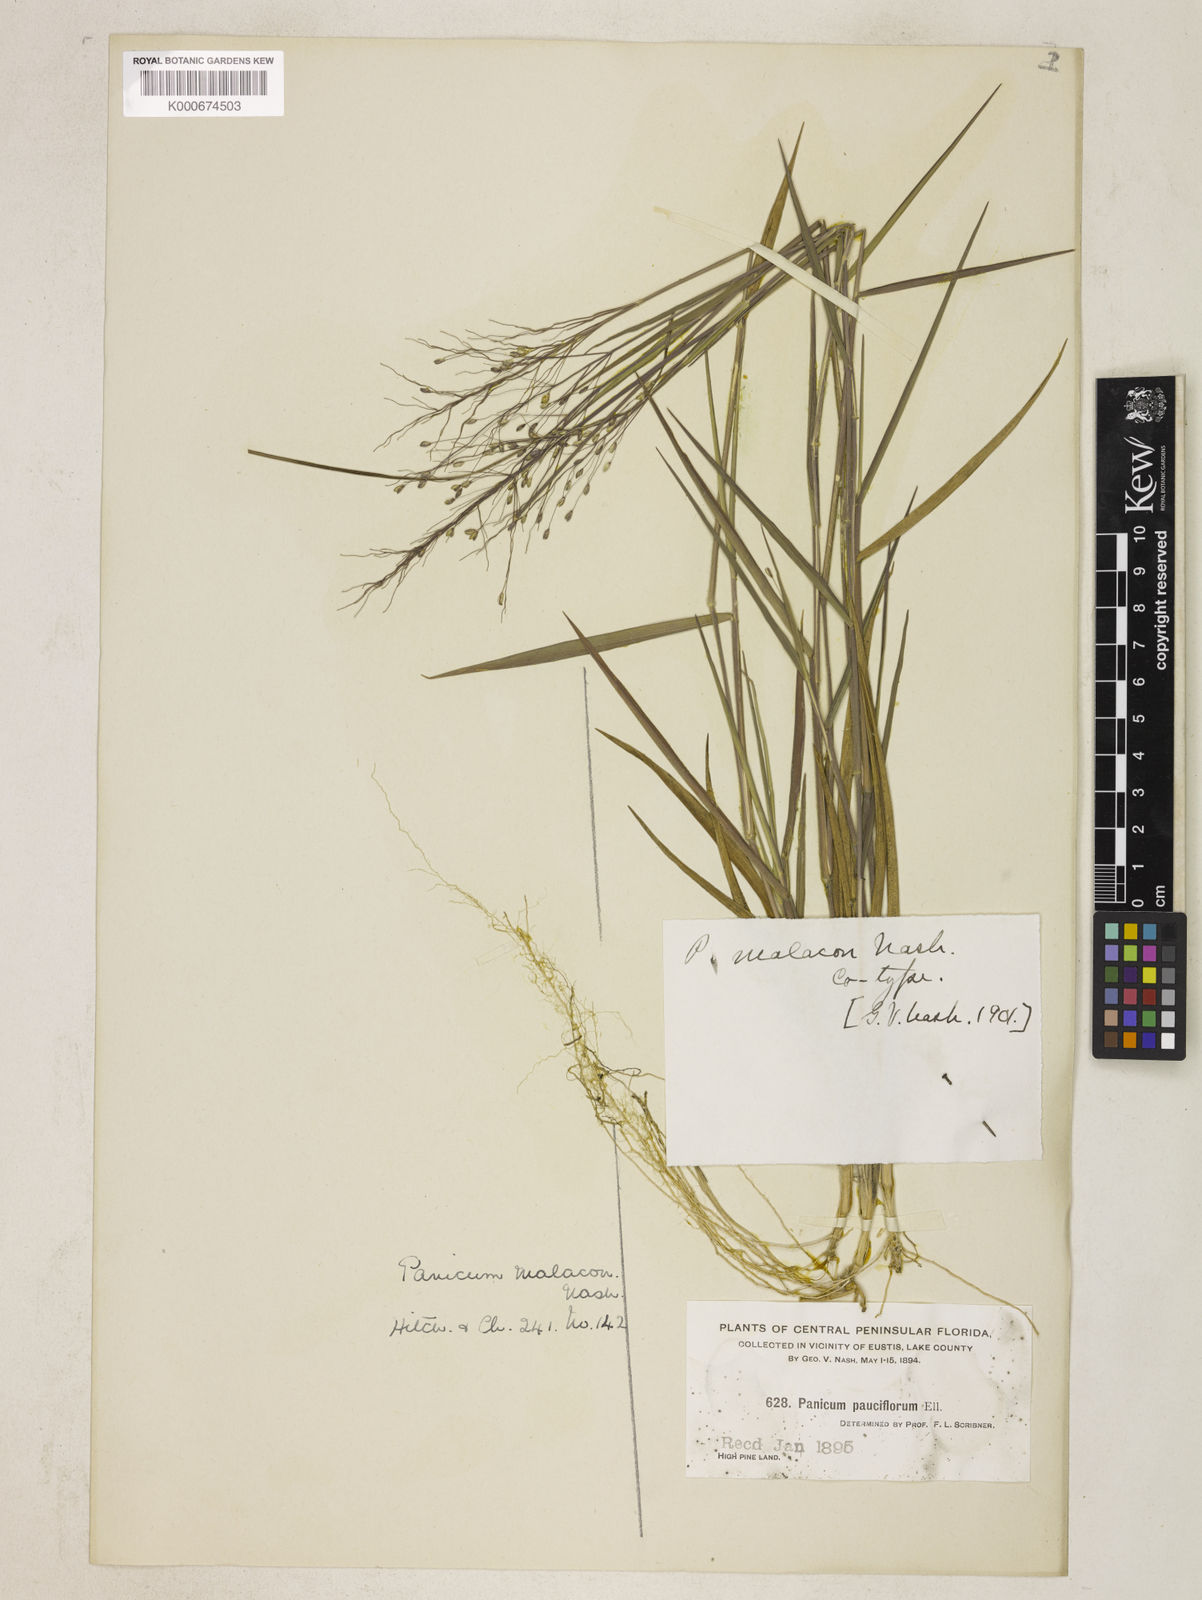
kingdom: Plantae
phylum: Tracheophyta
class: Liliopsida
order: Poales
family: Poaceae
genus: Dichanthelium
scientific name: Dichanthelium malacon
